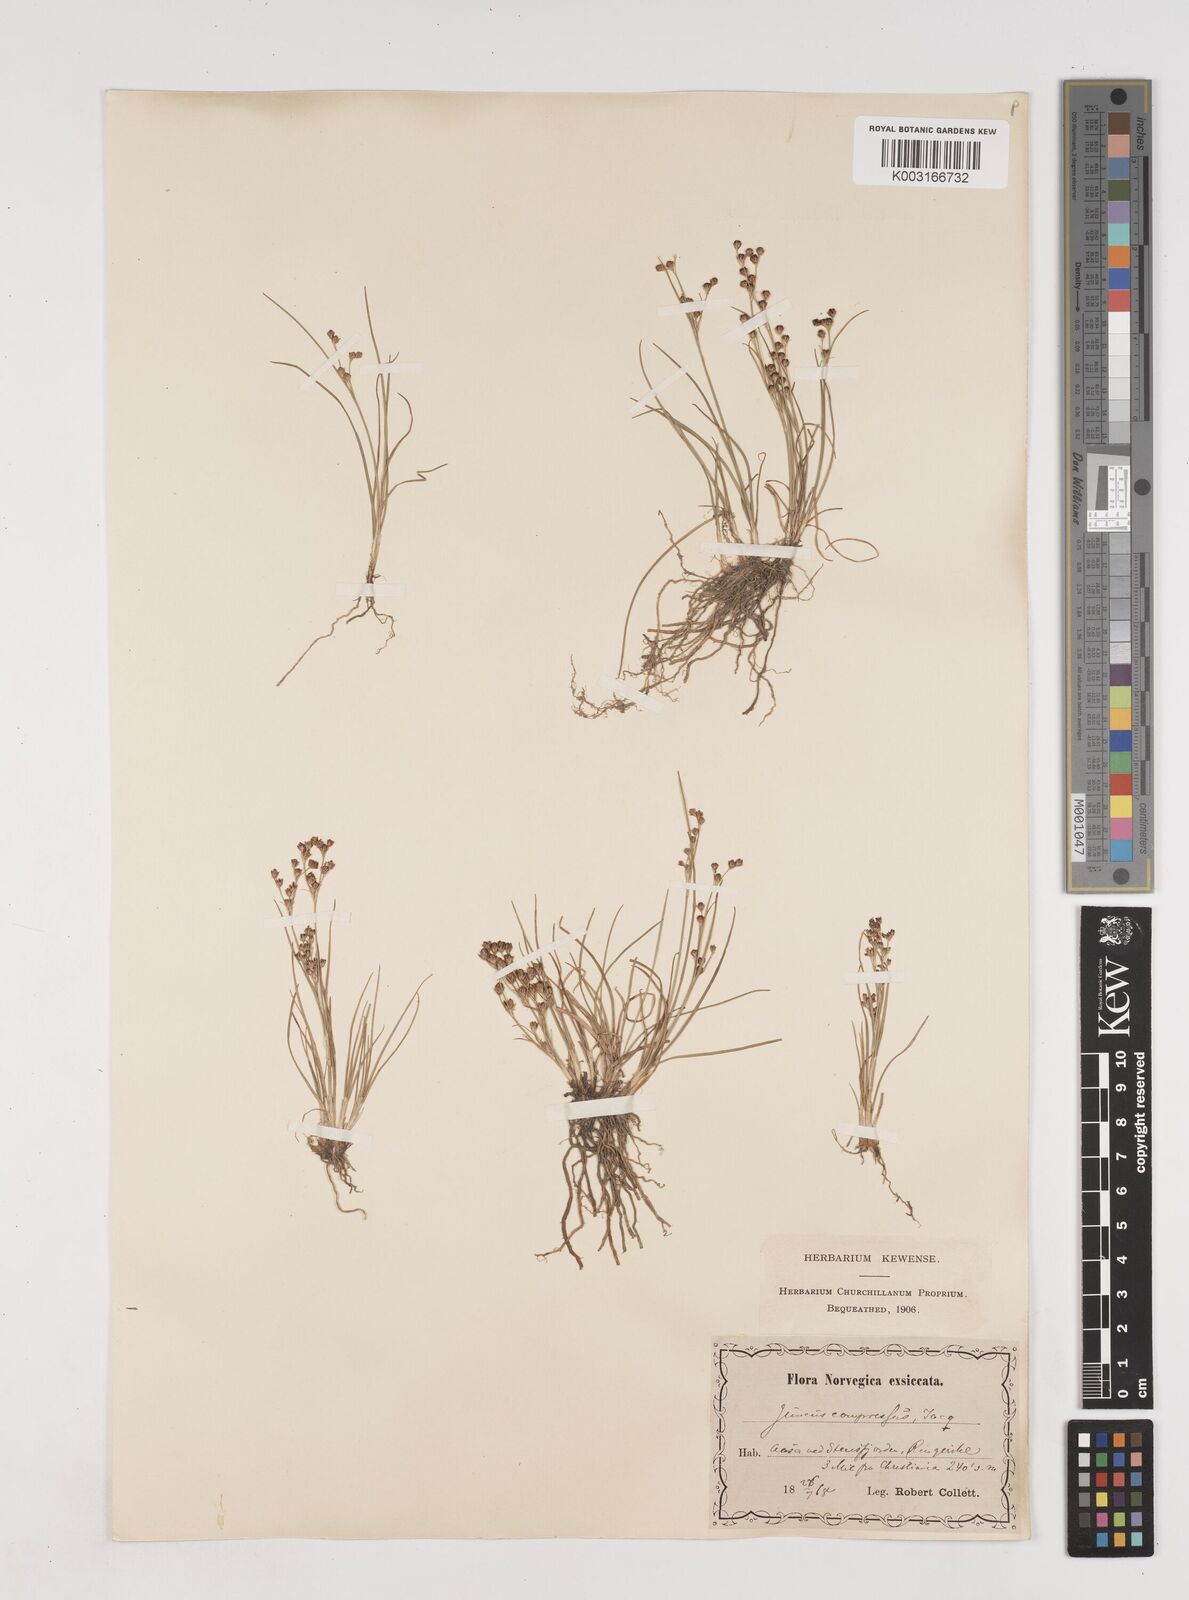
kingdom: Plantae
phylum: Tracheophyta
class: Liliopsida
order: Poales
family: Juncaceae
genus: Juncus
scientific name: Juncus
